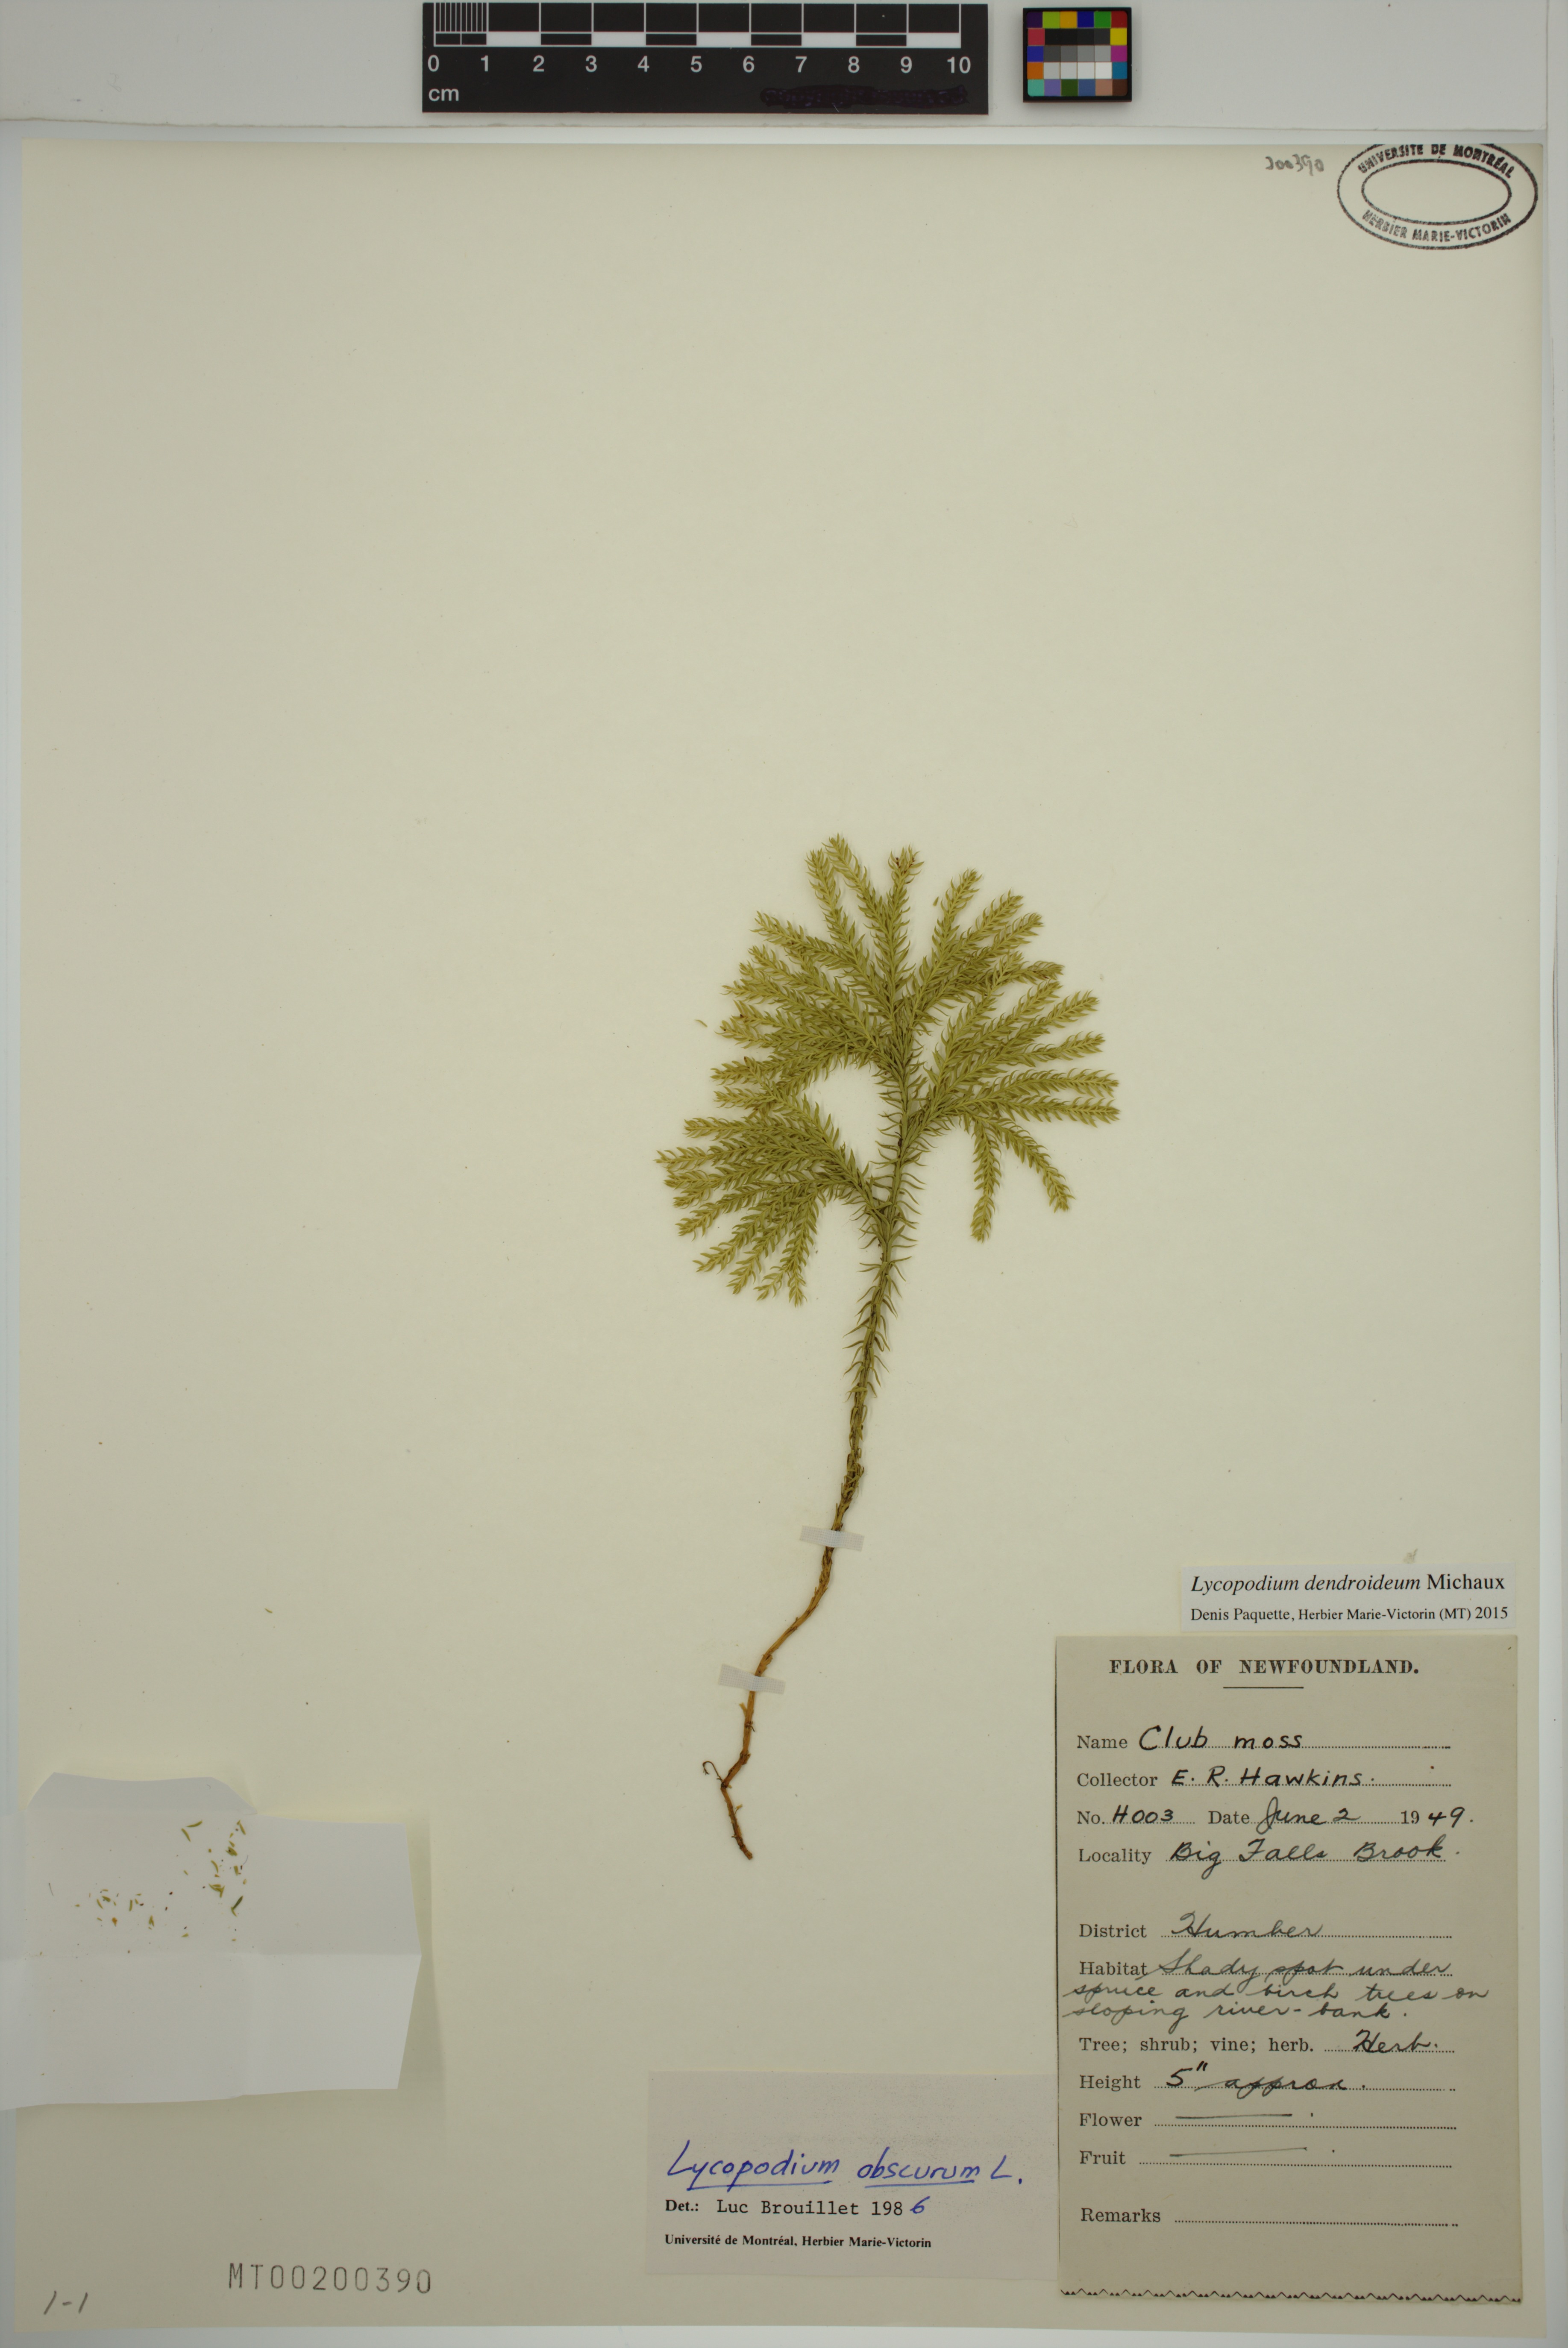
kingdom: Plantae
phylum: Tracheophyta
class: Lycopodiopsida
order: Lycopodiales
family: Lycopodiaceae
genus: Dendrolycopodium
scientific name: Dendrolycopodium dendroideum
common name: Northern tree-clubmoss
